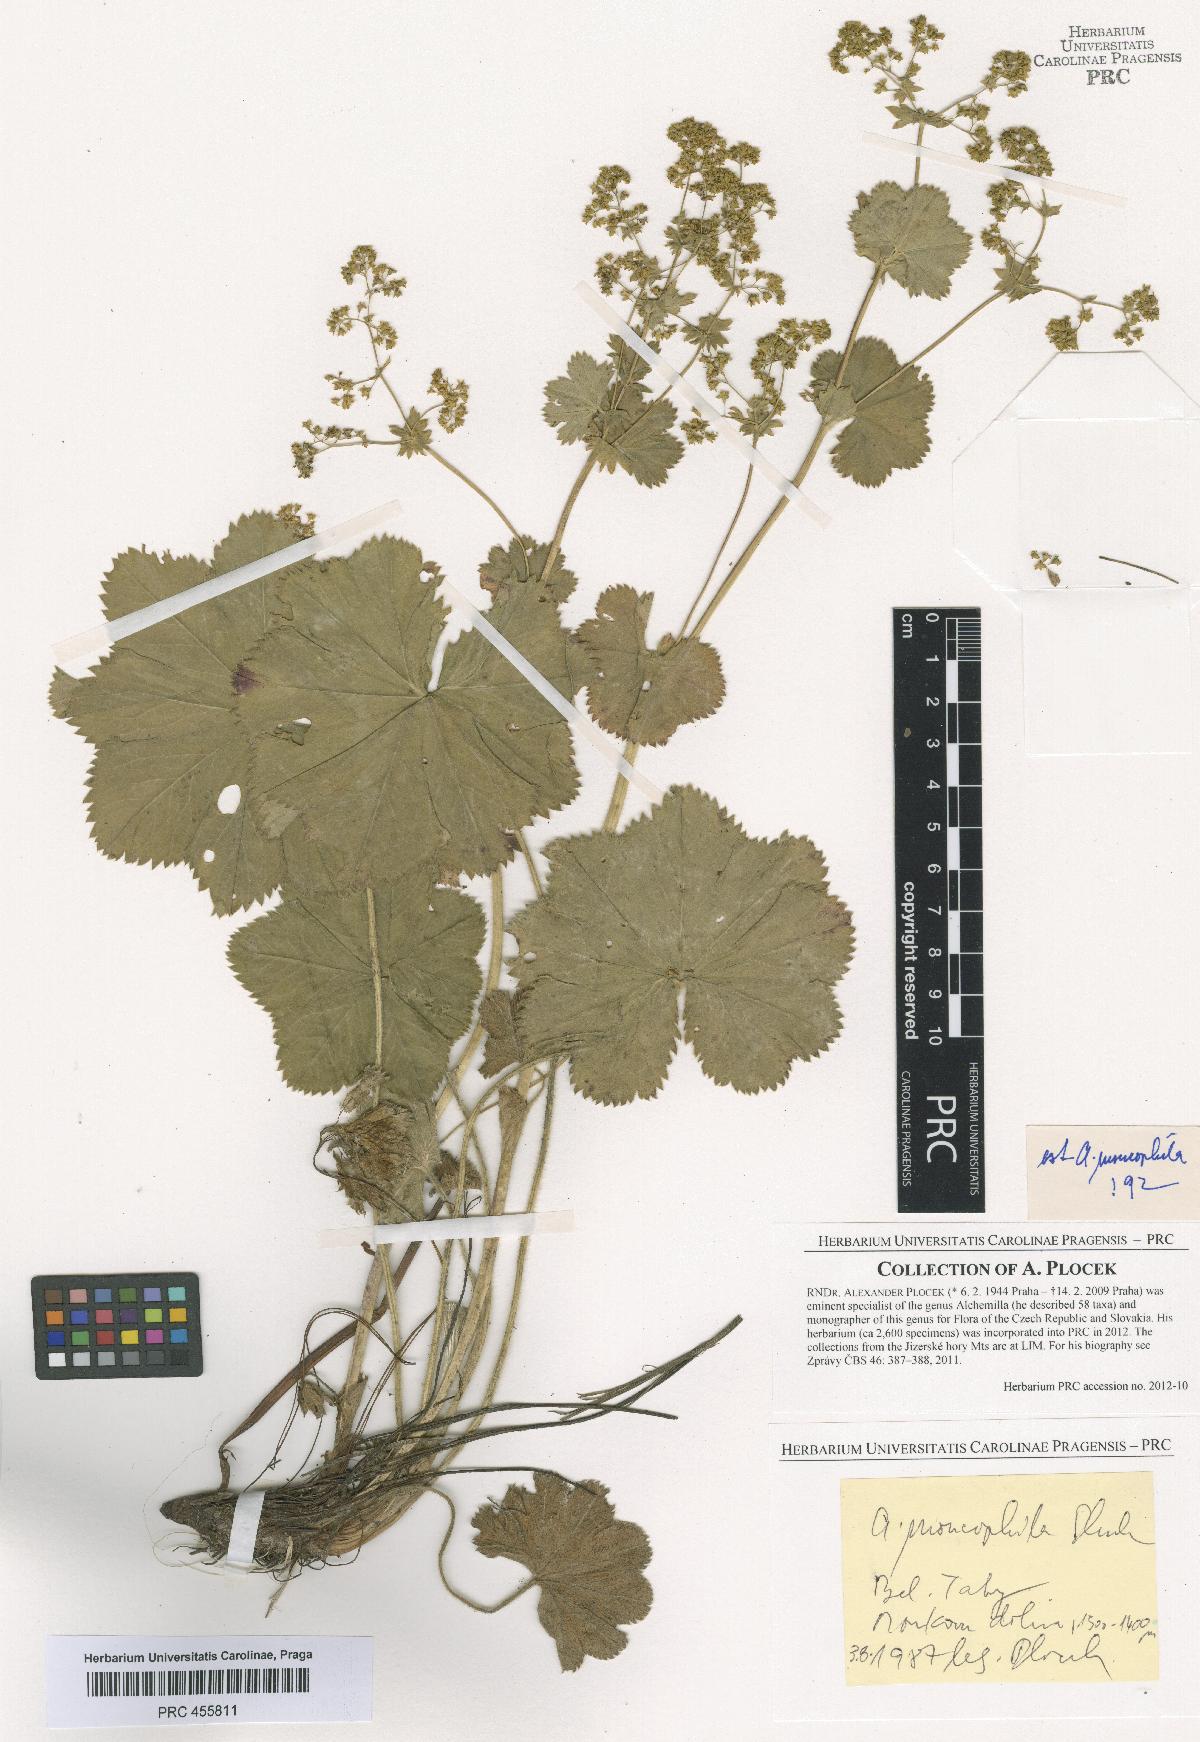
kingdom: Plantae
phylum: Tracheophyta
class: Magnoliopsida
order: Rosales
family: Rosaceae
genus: Alchemilla
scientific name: Alchemilla moncophila
